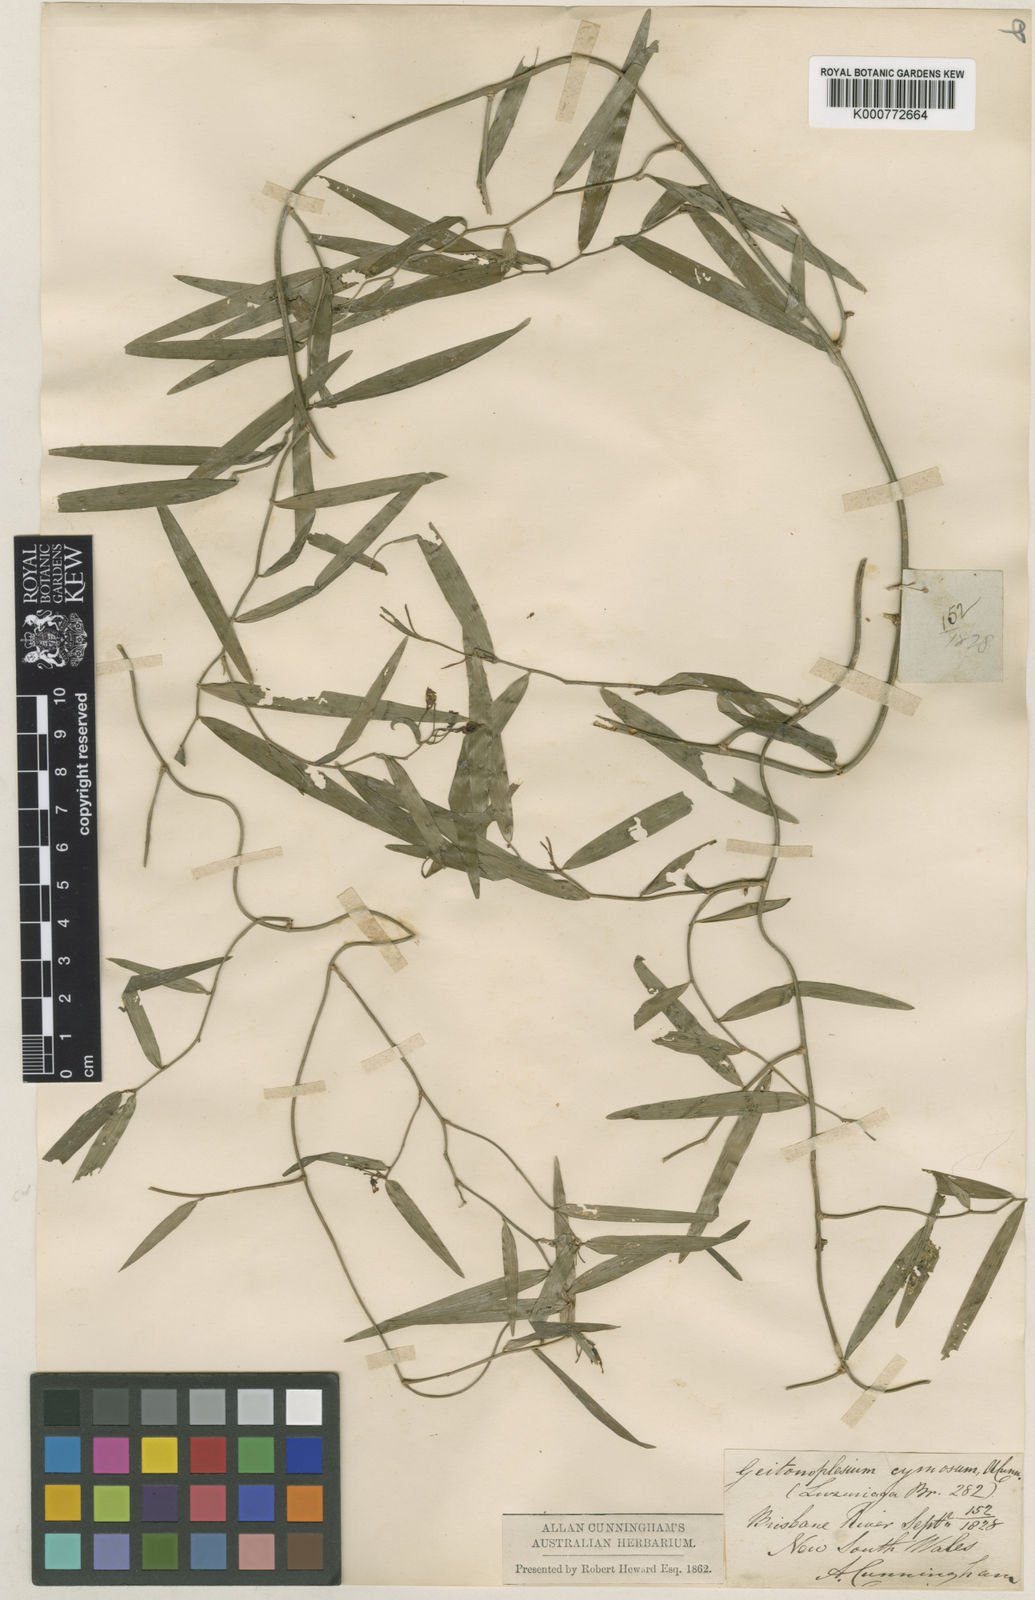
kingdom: Plantae
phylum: Tracheophyta
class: Liliopsida
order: Asparagales
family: Asphodelaceae
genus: Geitonoplesium
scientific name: Geitonoplesium
